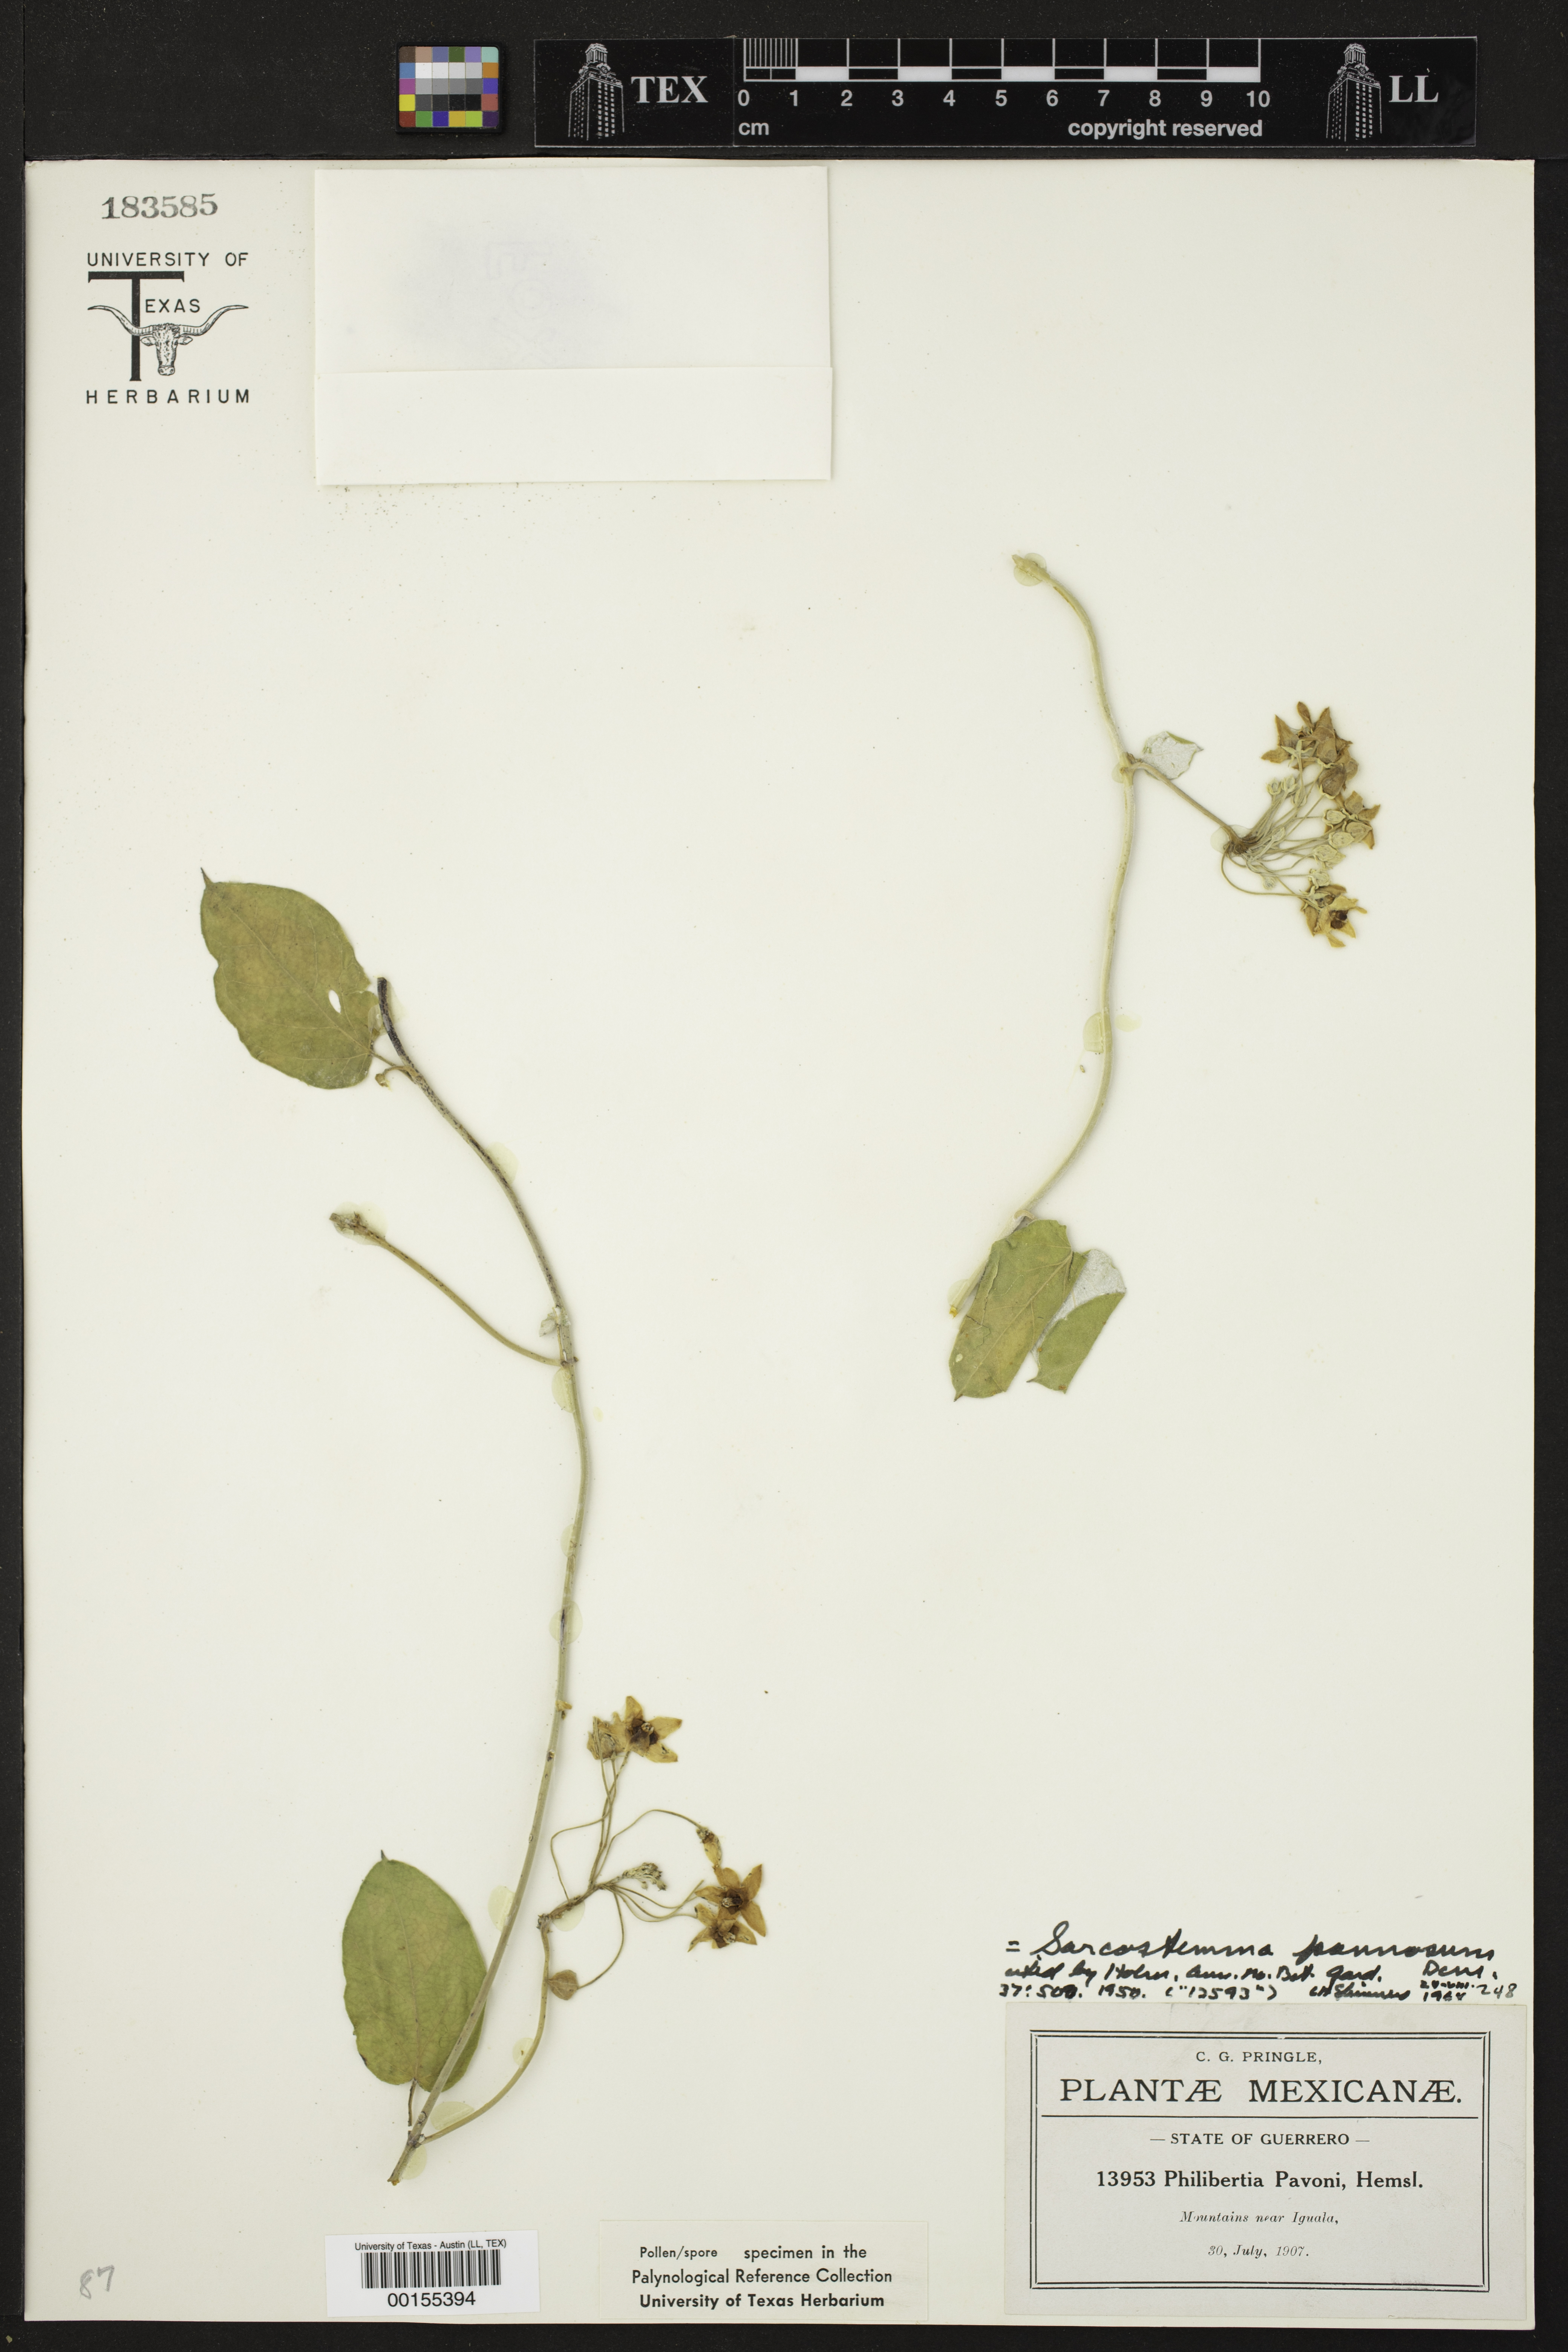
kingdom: Plantae
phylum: Tracheophyta
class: Magnoliopsida
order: Gentianales
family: Apocynaceae
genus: Funastrum
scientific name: Funastrum pannosum
